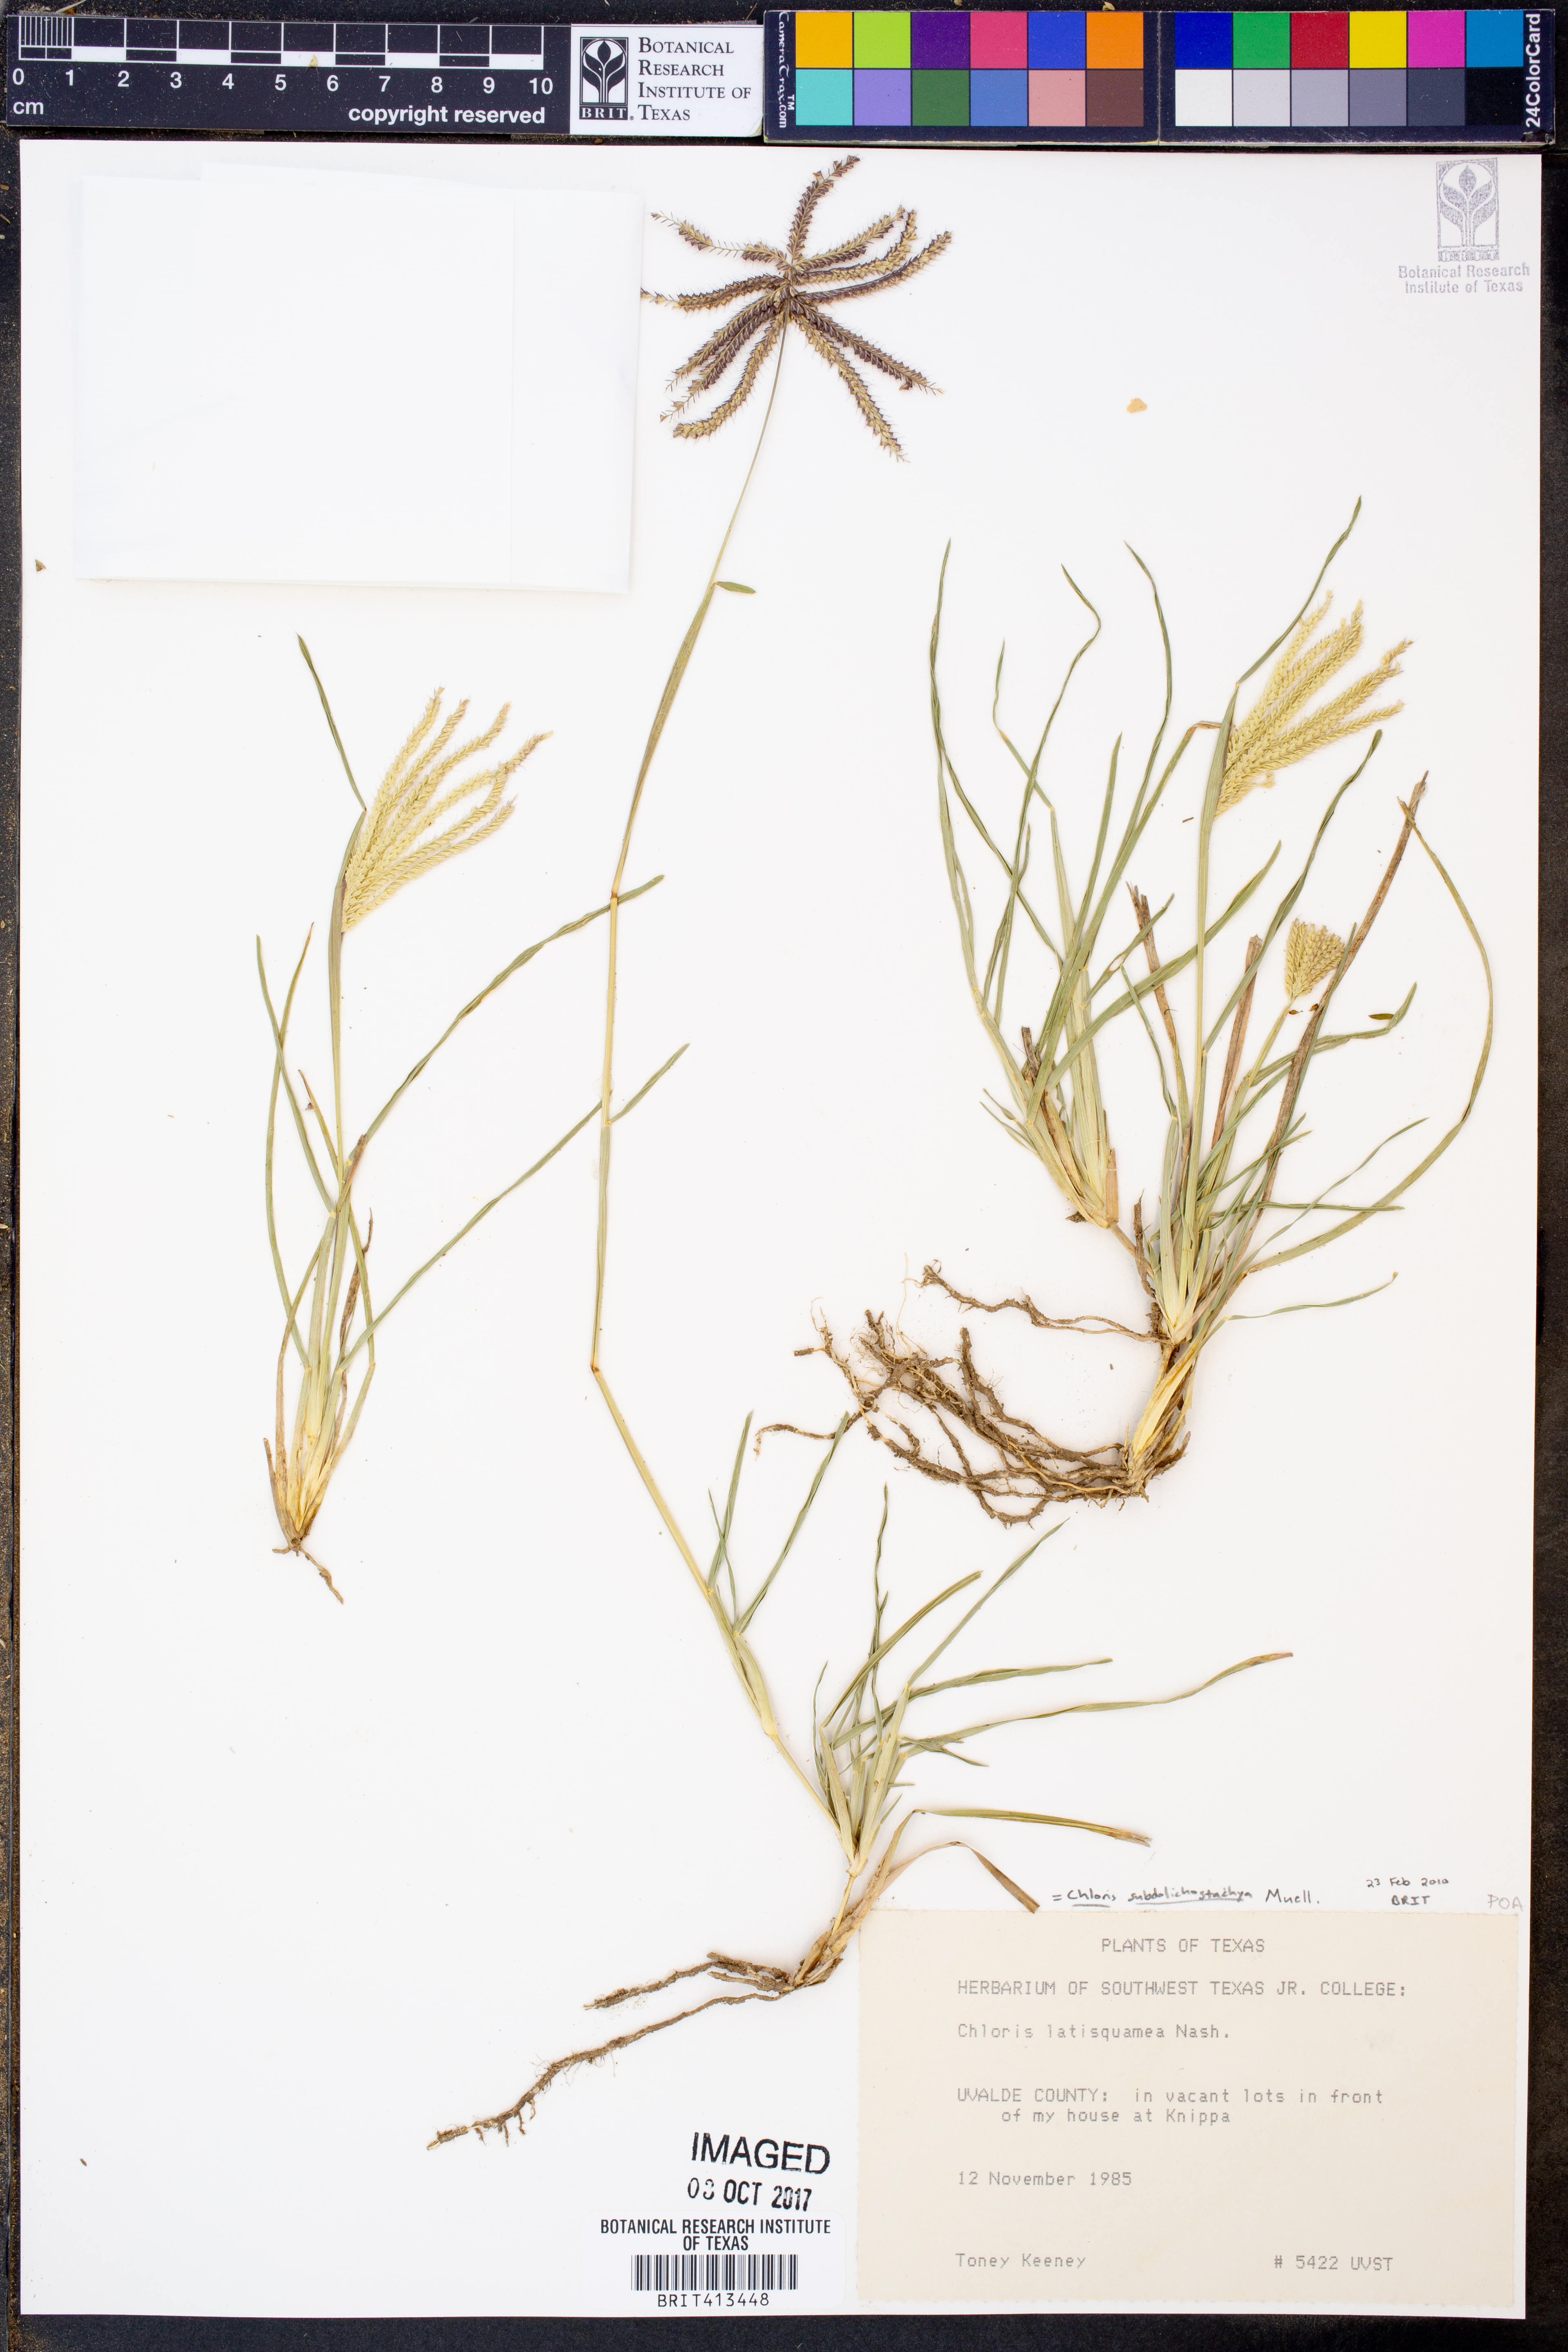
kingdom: Plantae
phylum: Tracheophyta
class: Liliopsida
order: Poales
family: Poaceae
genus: Chloris
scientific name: Chloris subdolichostachya
